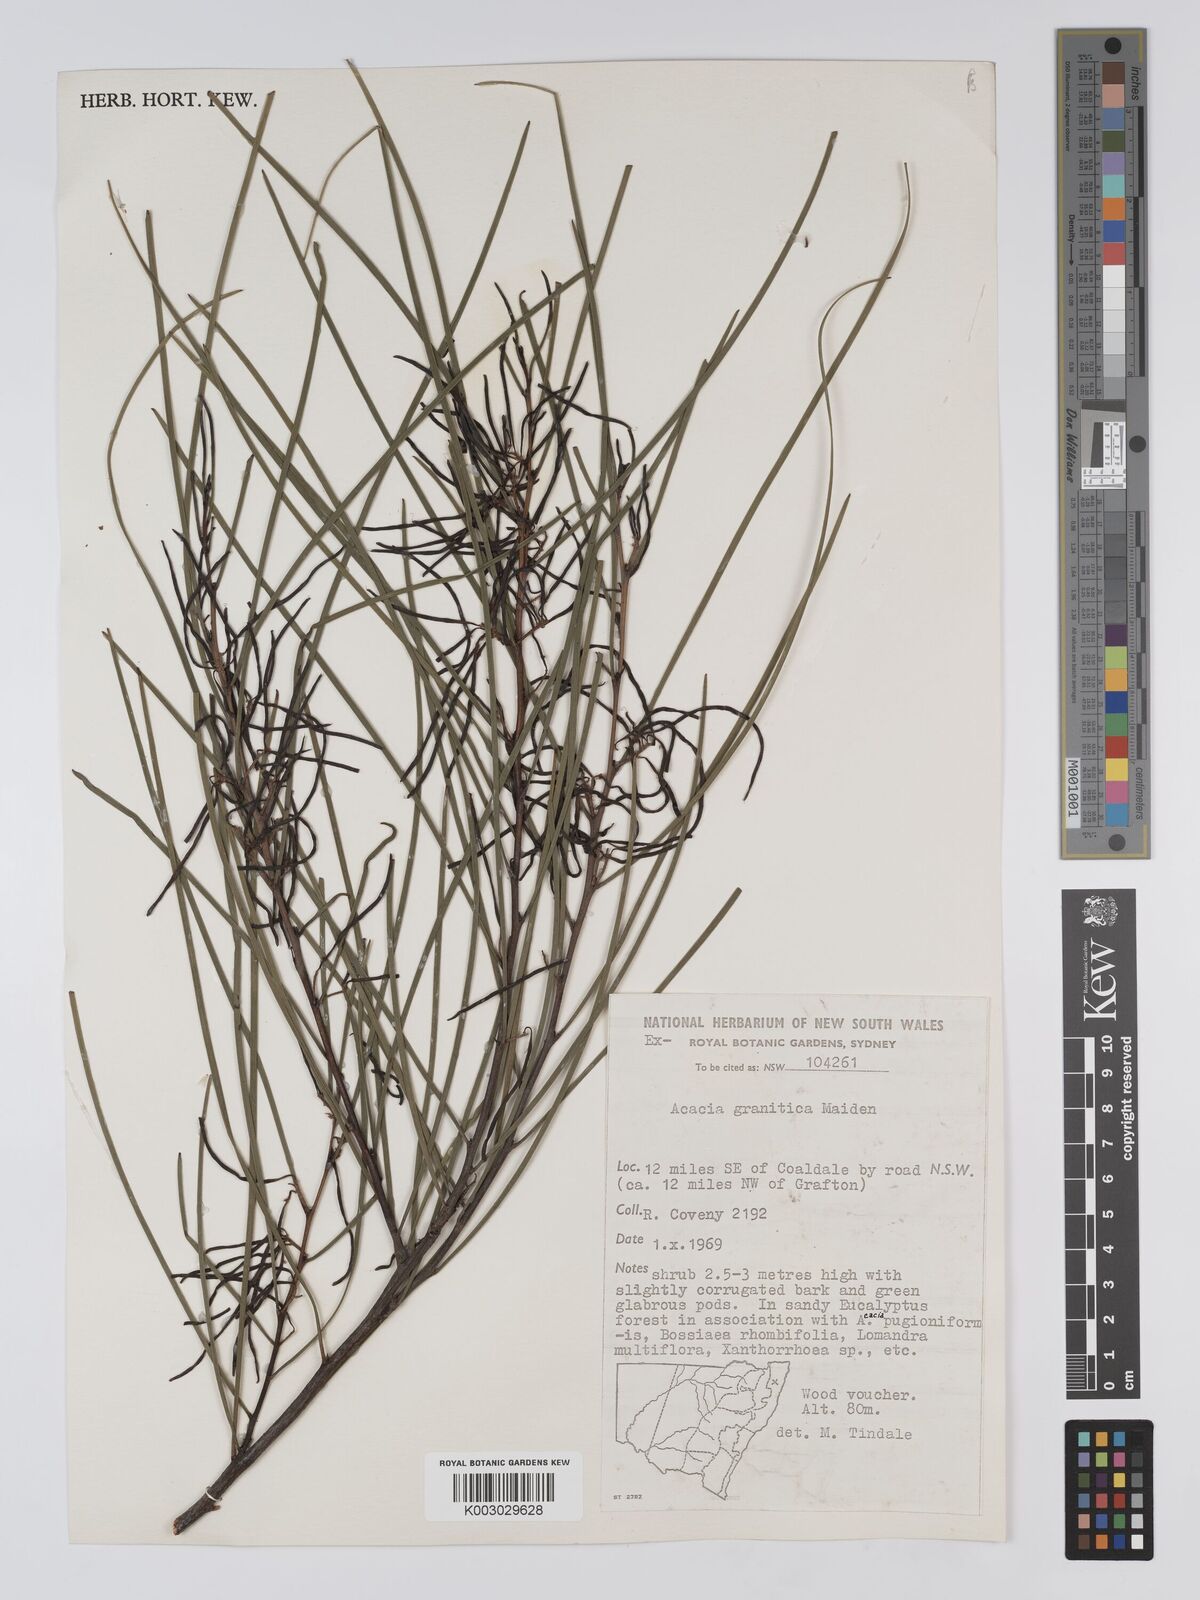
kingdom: Plantae
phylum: Tracheophyta
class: Magnoliopsida
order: Fabales
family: Fabaceae
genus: Acacia
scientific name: Acacia granitica
